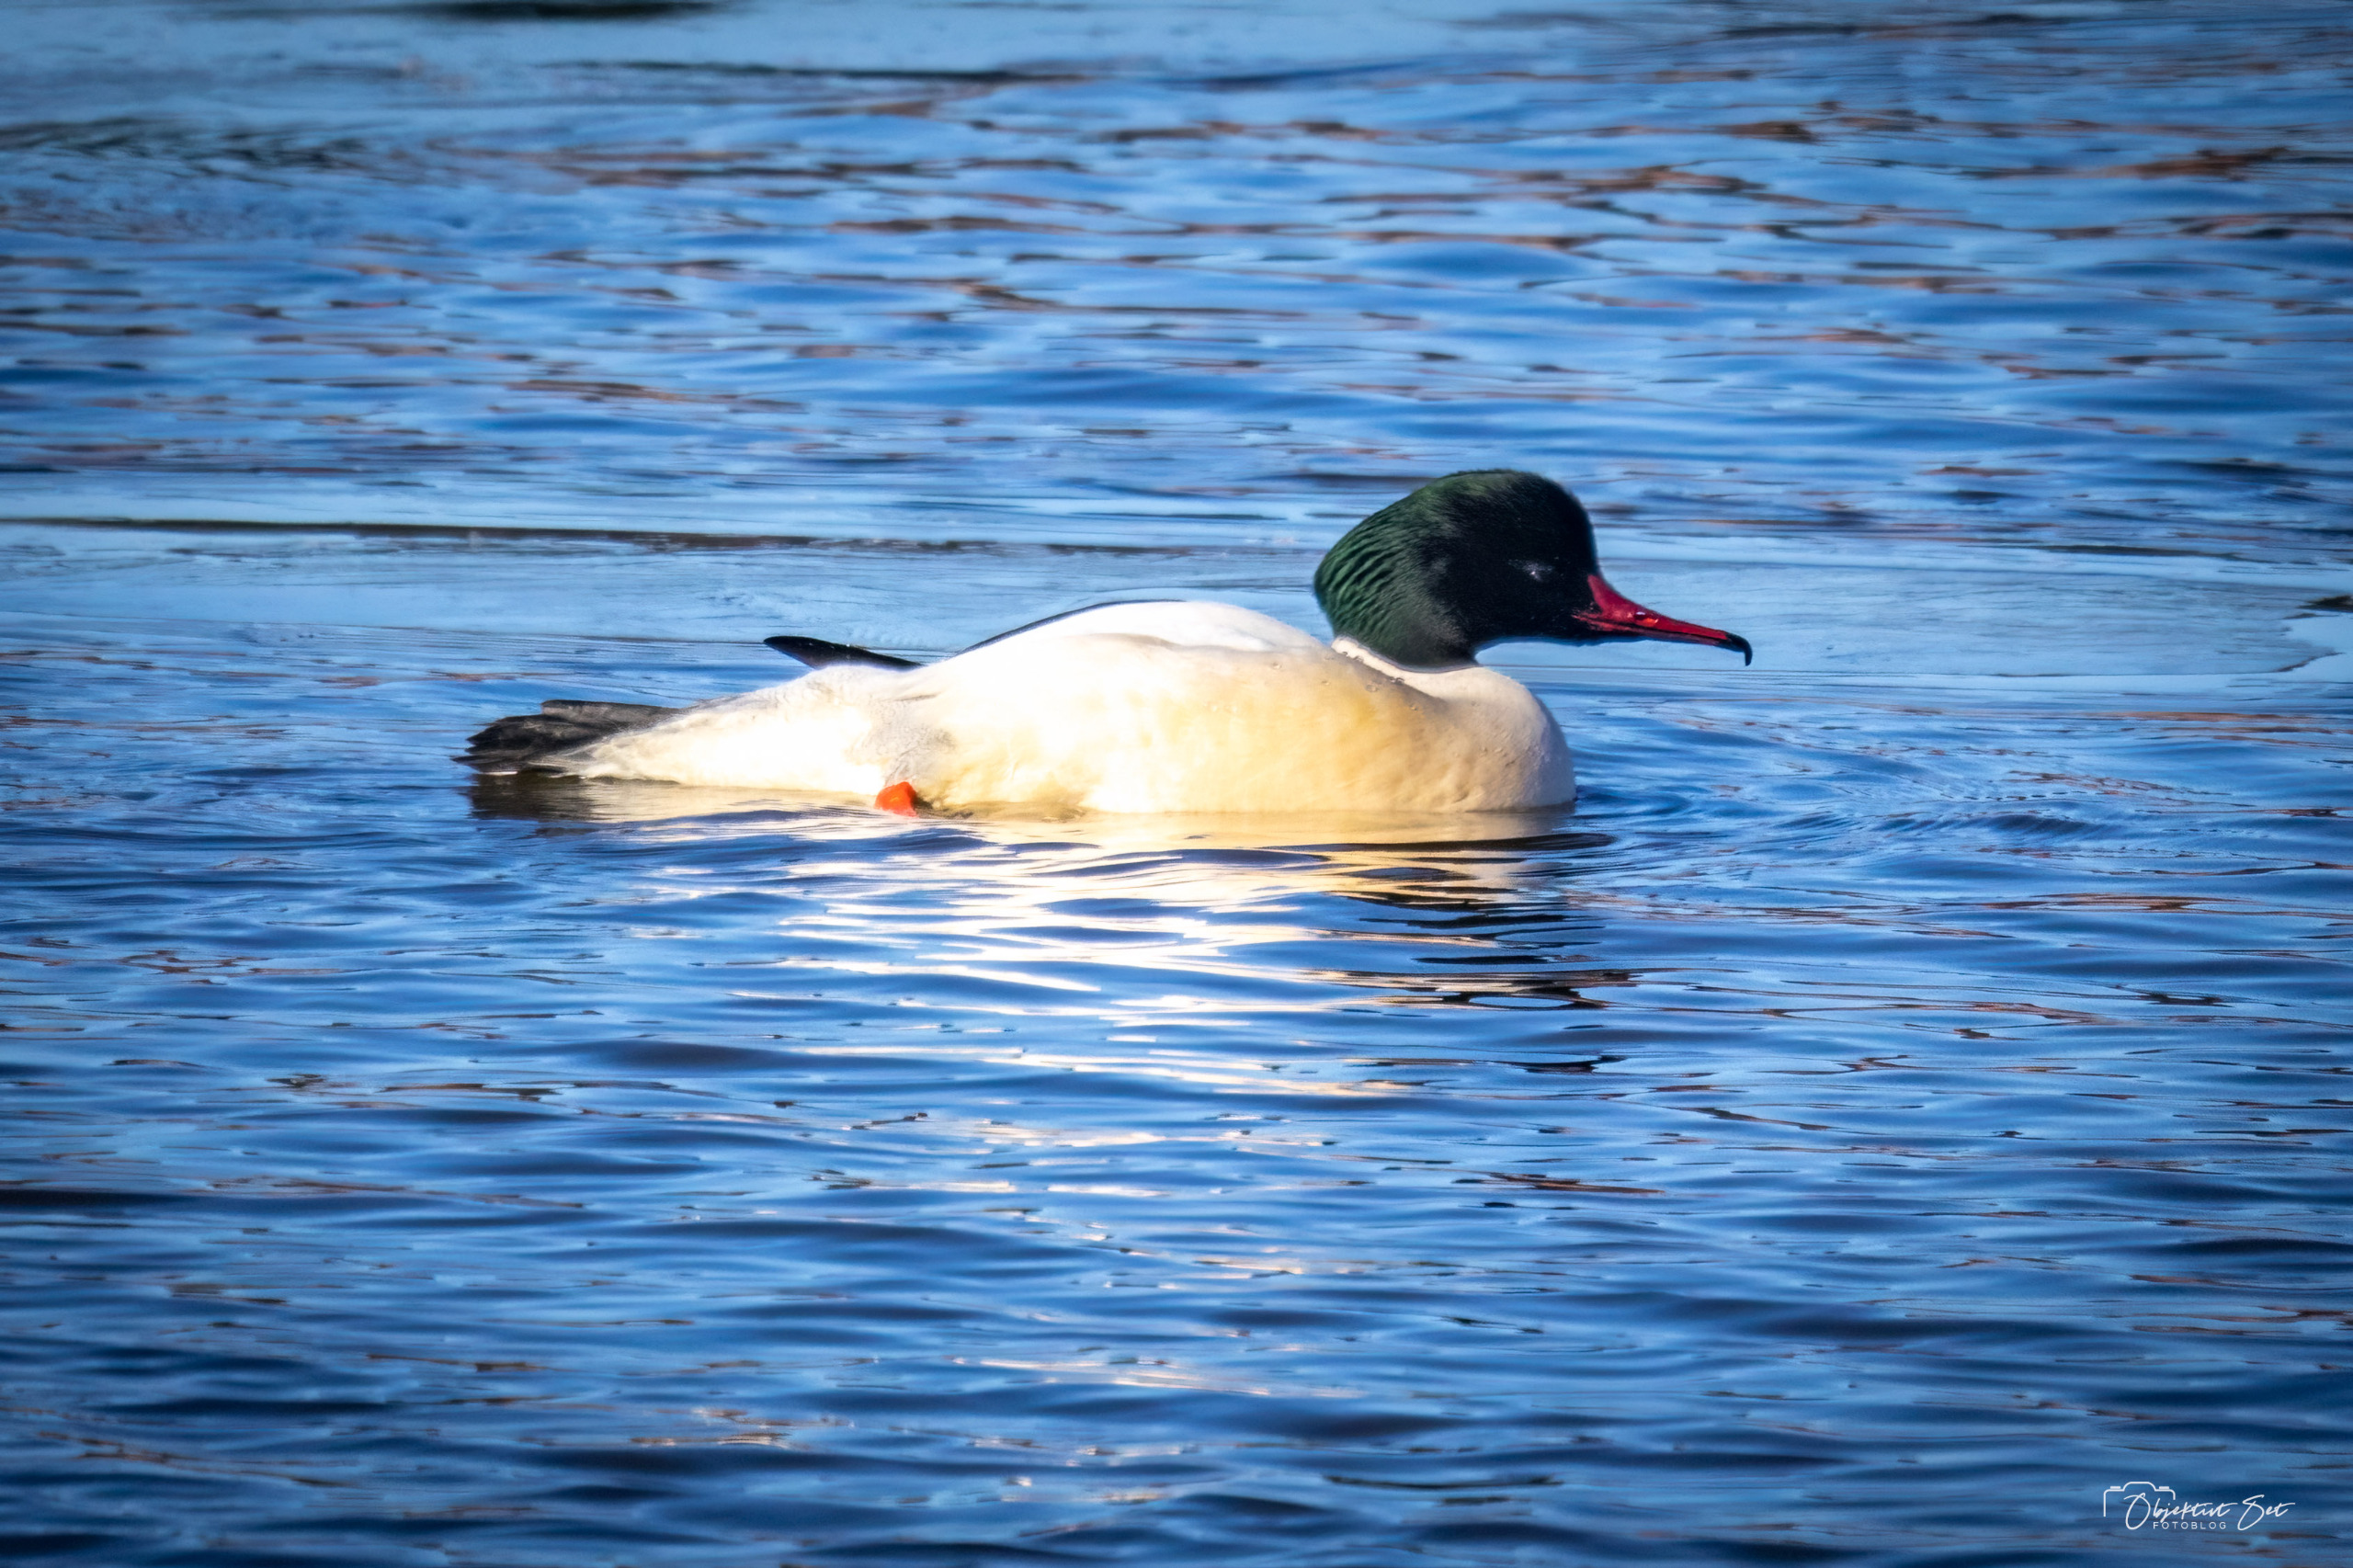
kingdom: Animalia
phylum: Chordata
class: Aves
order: Anseriformes
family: Anatidae
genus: Mergus
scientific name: Mergus merganser
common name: Stor skallesluger
